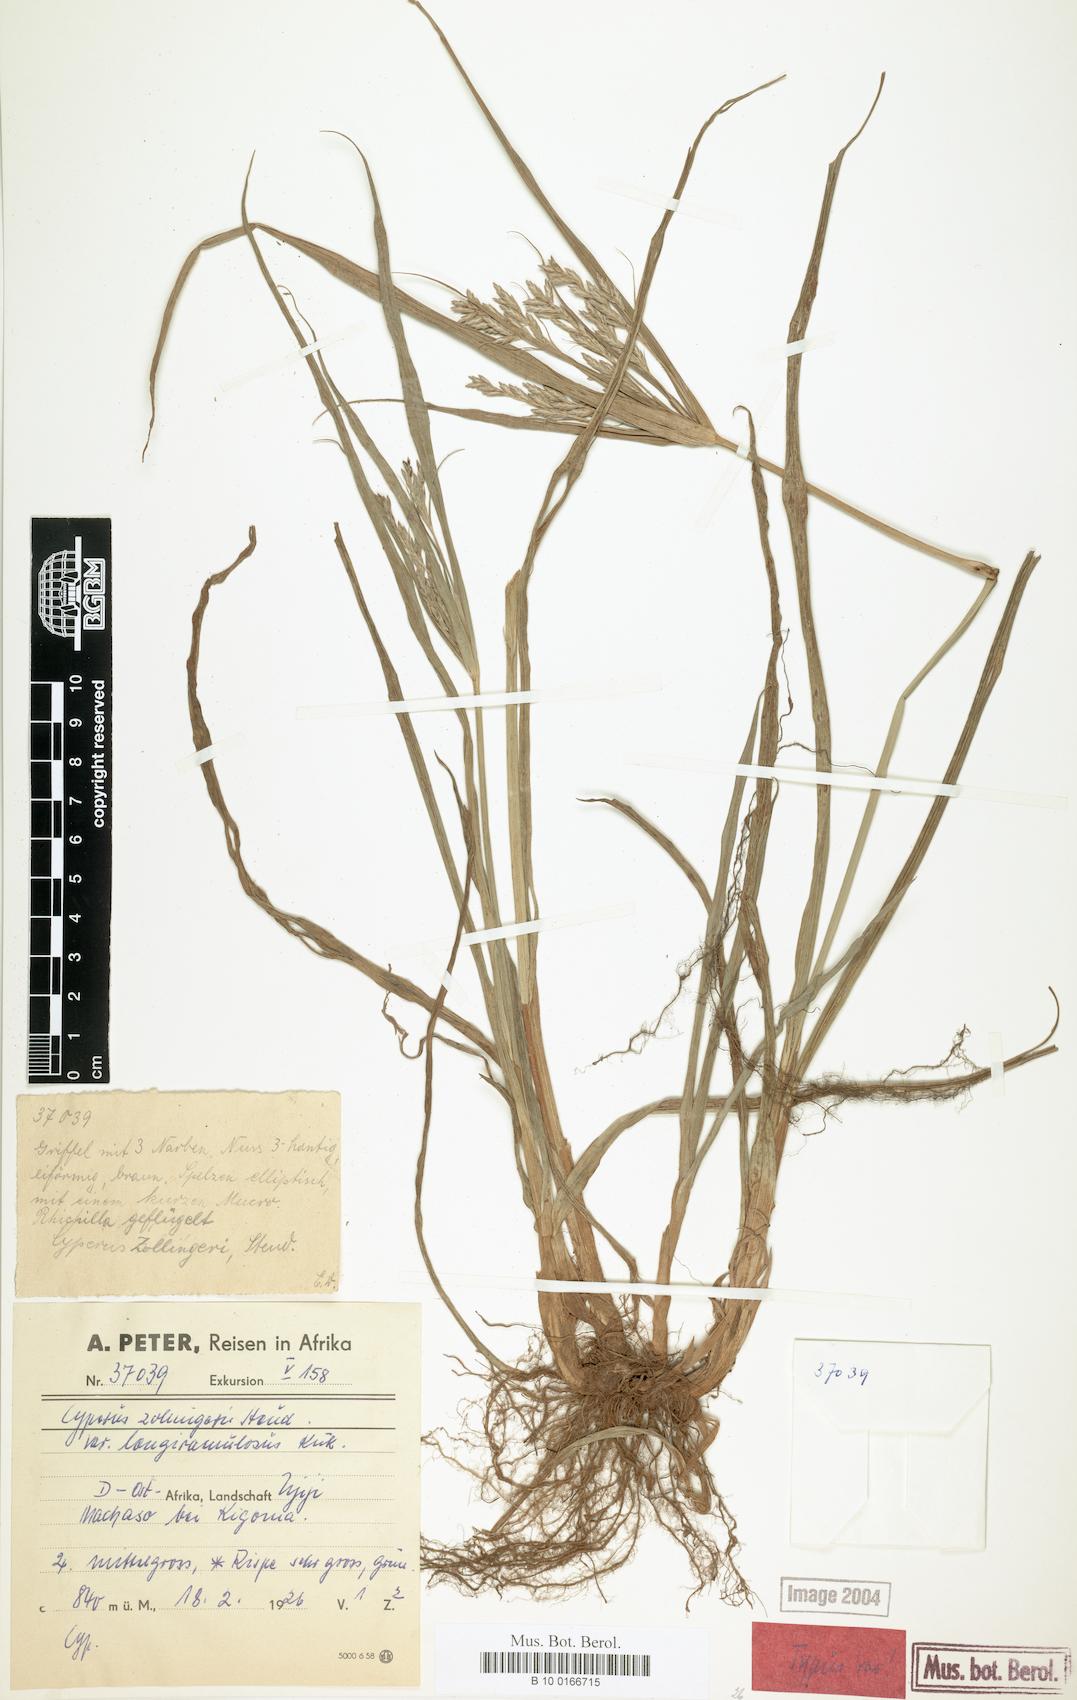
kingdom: Plantae
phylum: Tracheophyta
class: Liliopsida
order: Poales
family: Cyperaceae
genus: Cyperus
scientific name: Cyperus tenuiculmis
